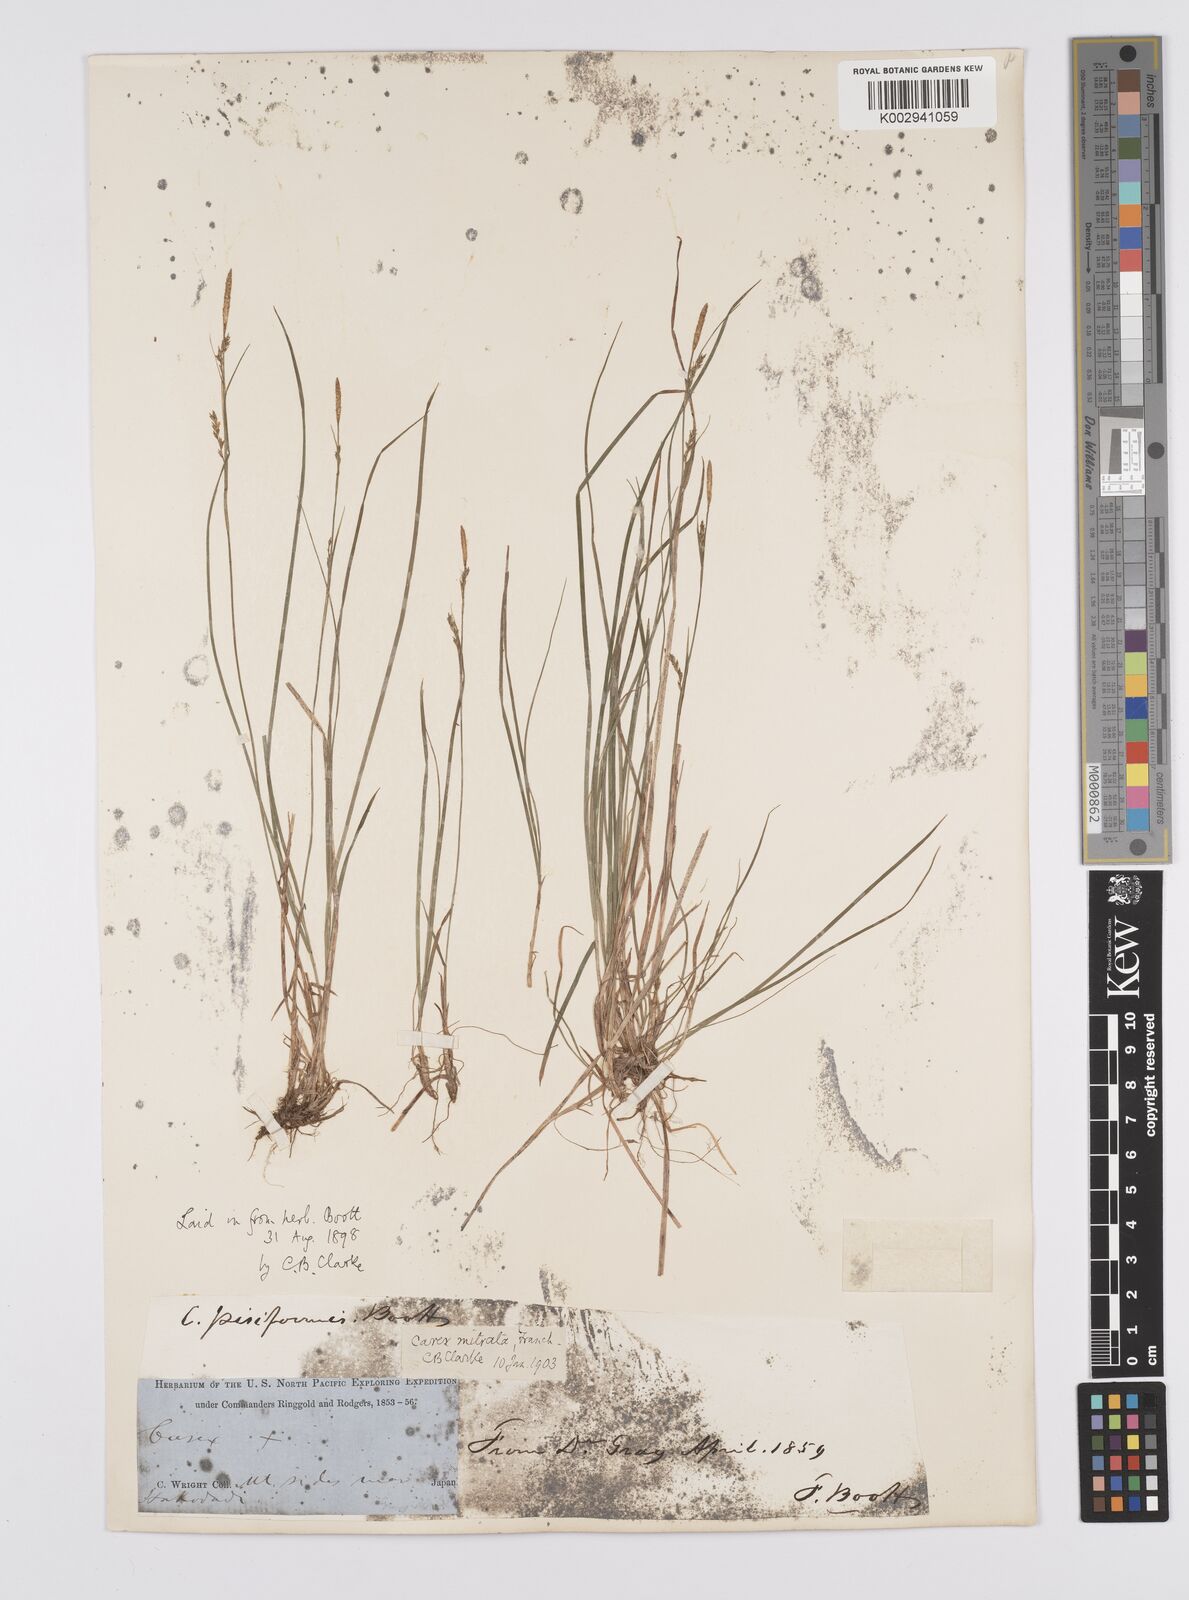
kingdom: Plantae
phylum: Tracheophyta
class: Liliopsida
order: Poales
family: Cyperaceae
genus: Carex
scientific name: Carex mitrata
